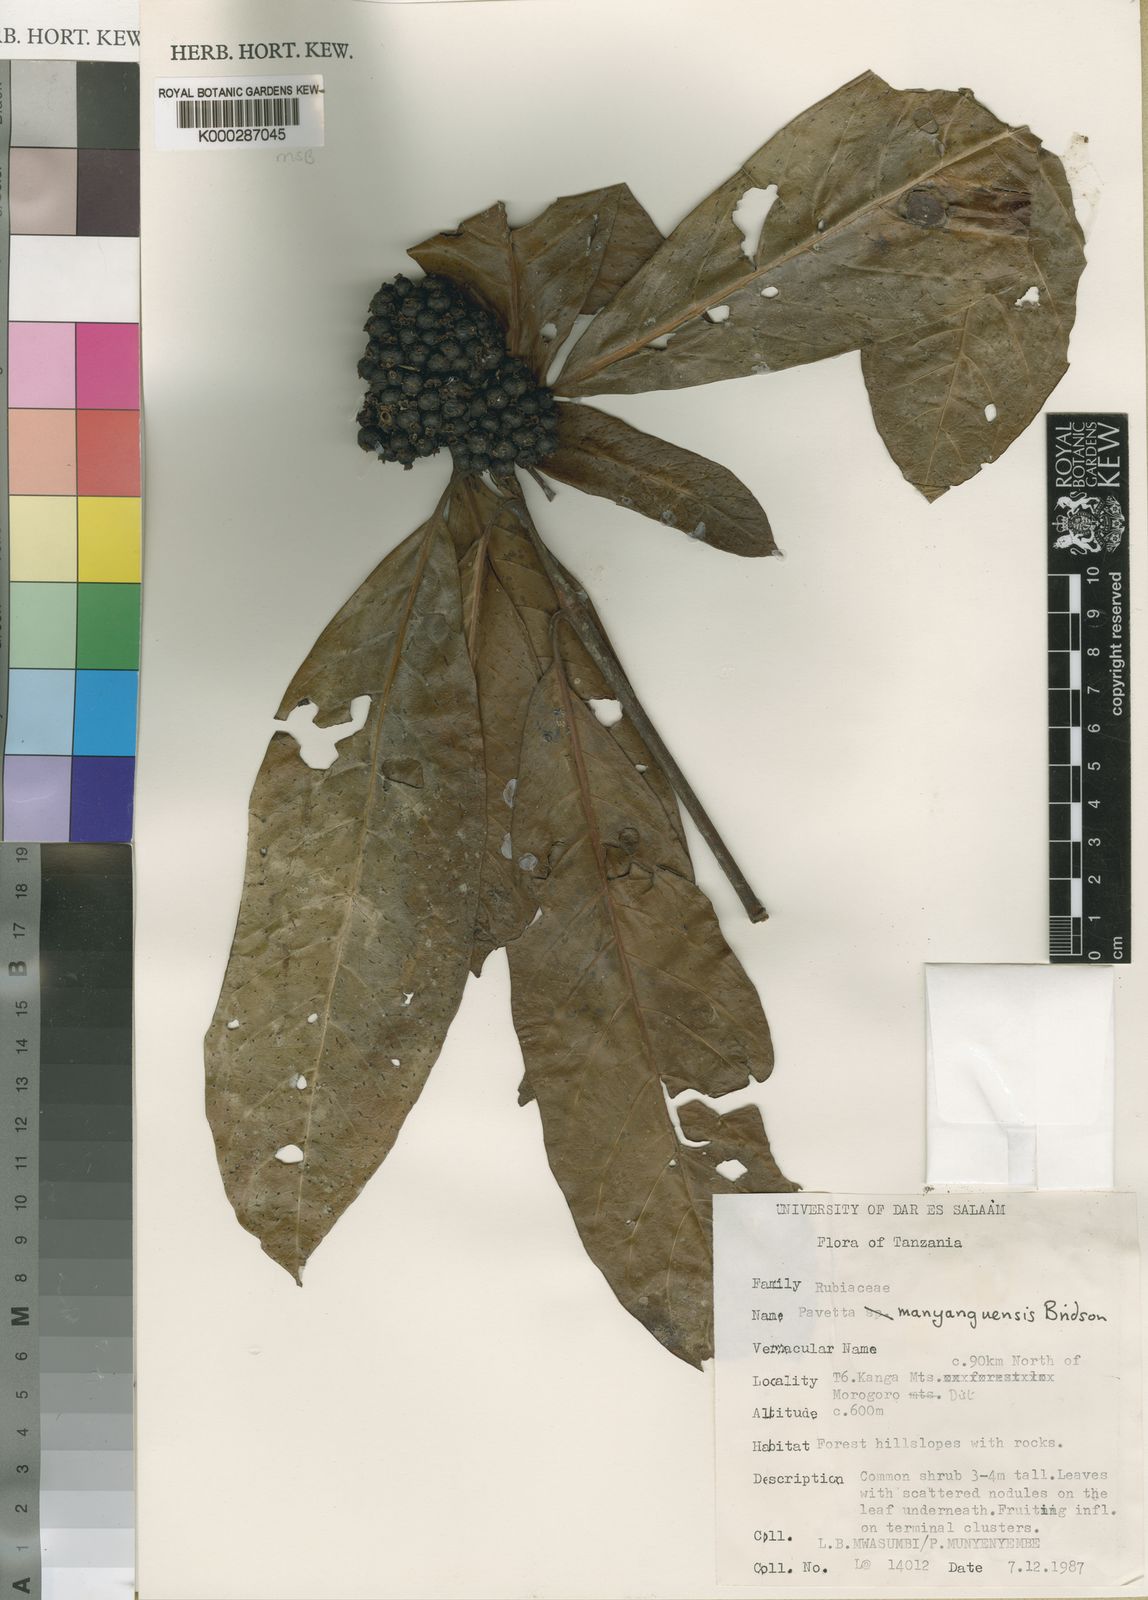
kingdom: Plantae
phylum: Tracheophyta
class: Magnoliopsida
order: Gentianales
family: Rubiaceae
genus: Pavetta
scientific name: Pavetta manyanguensis
